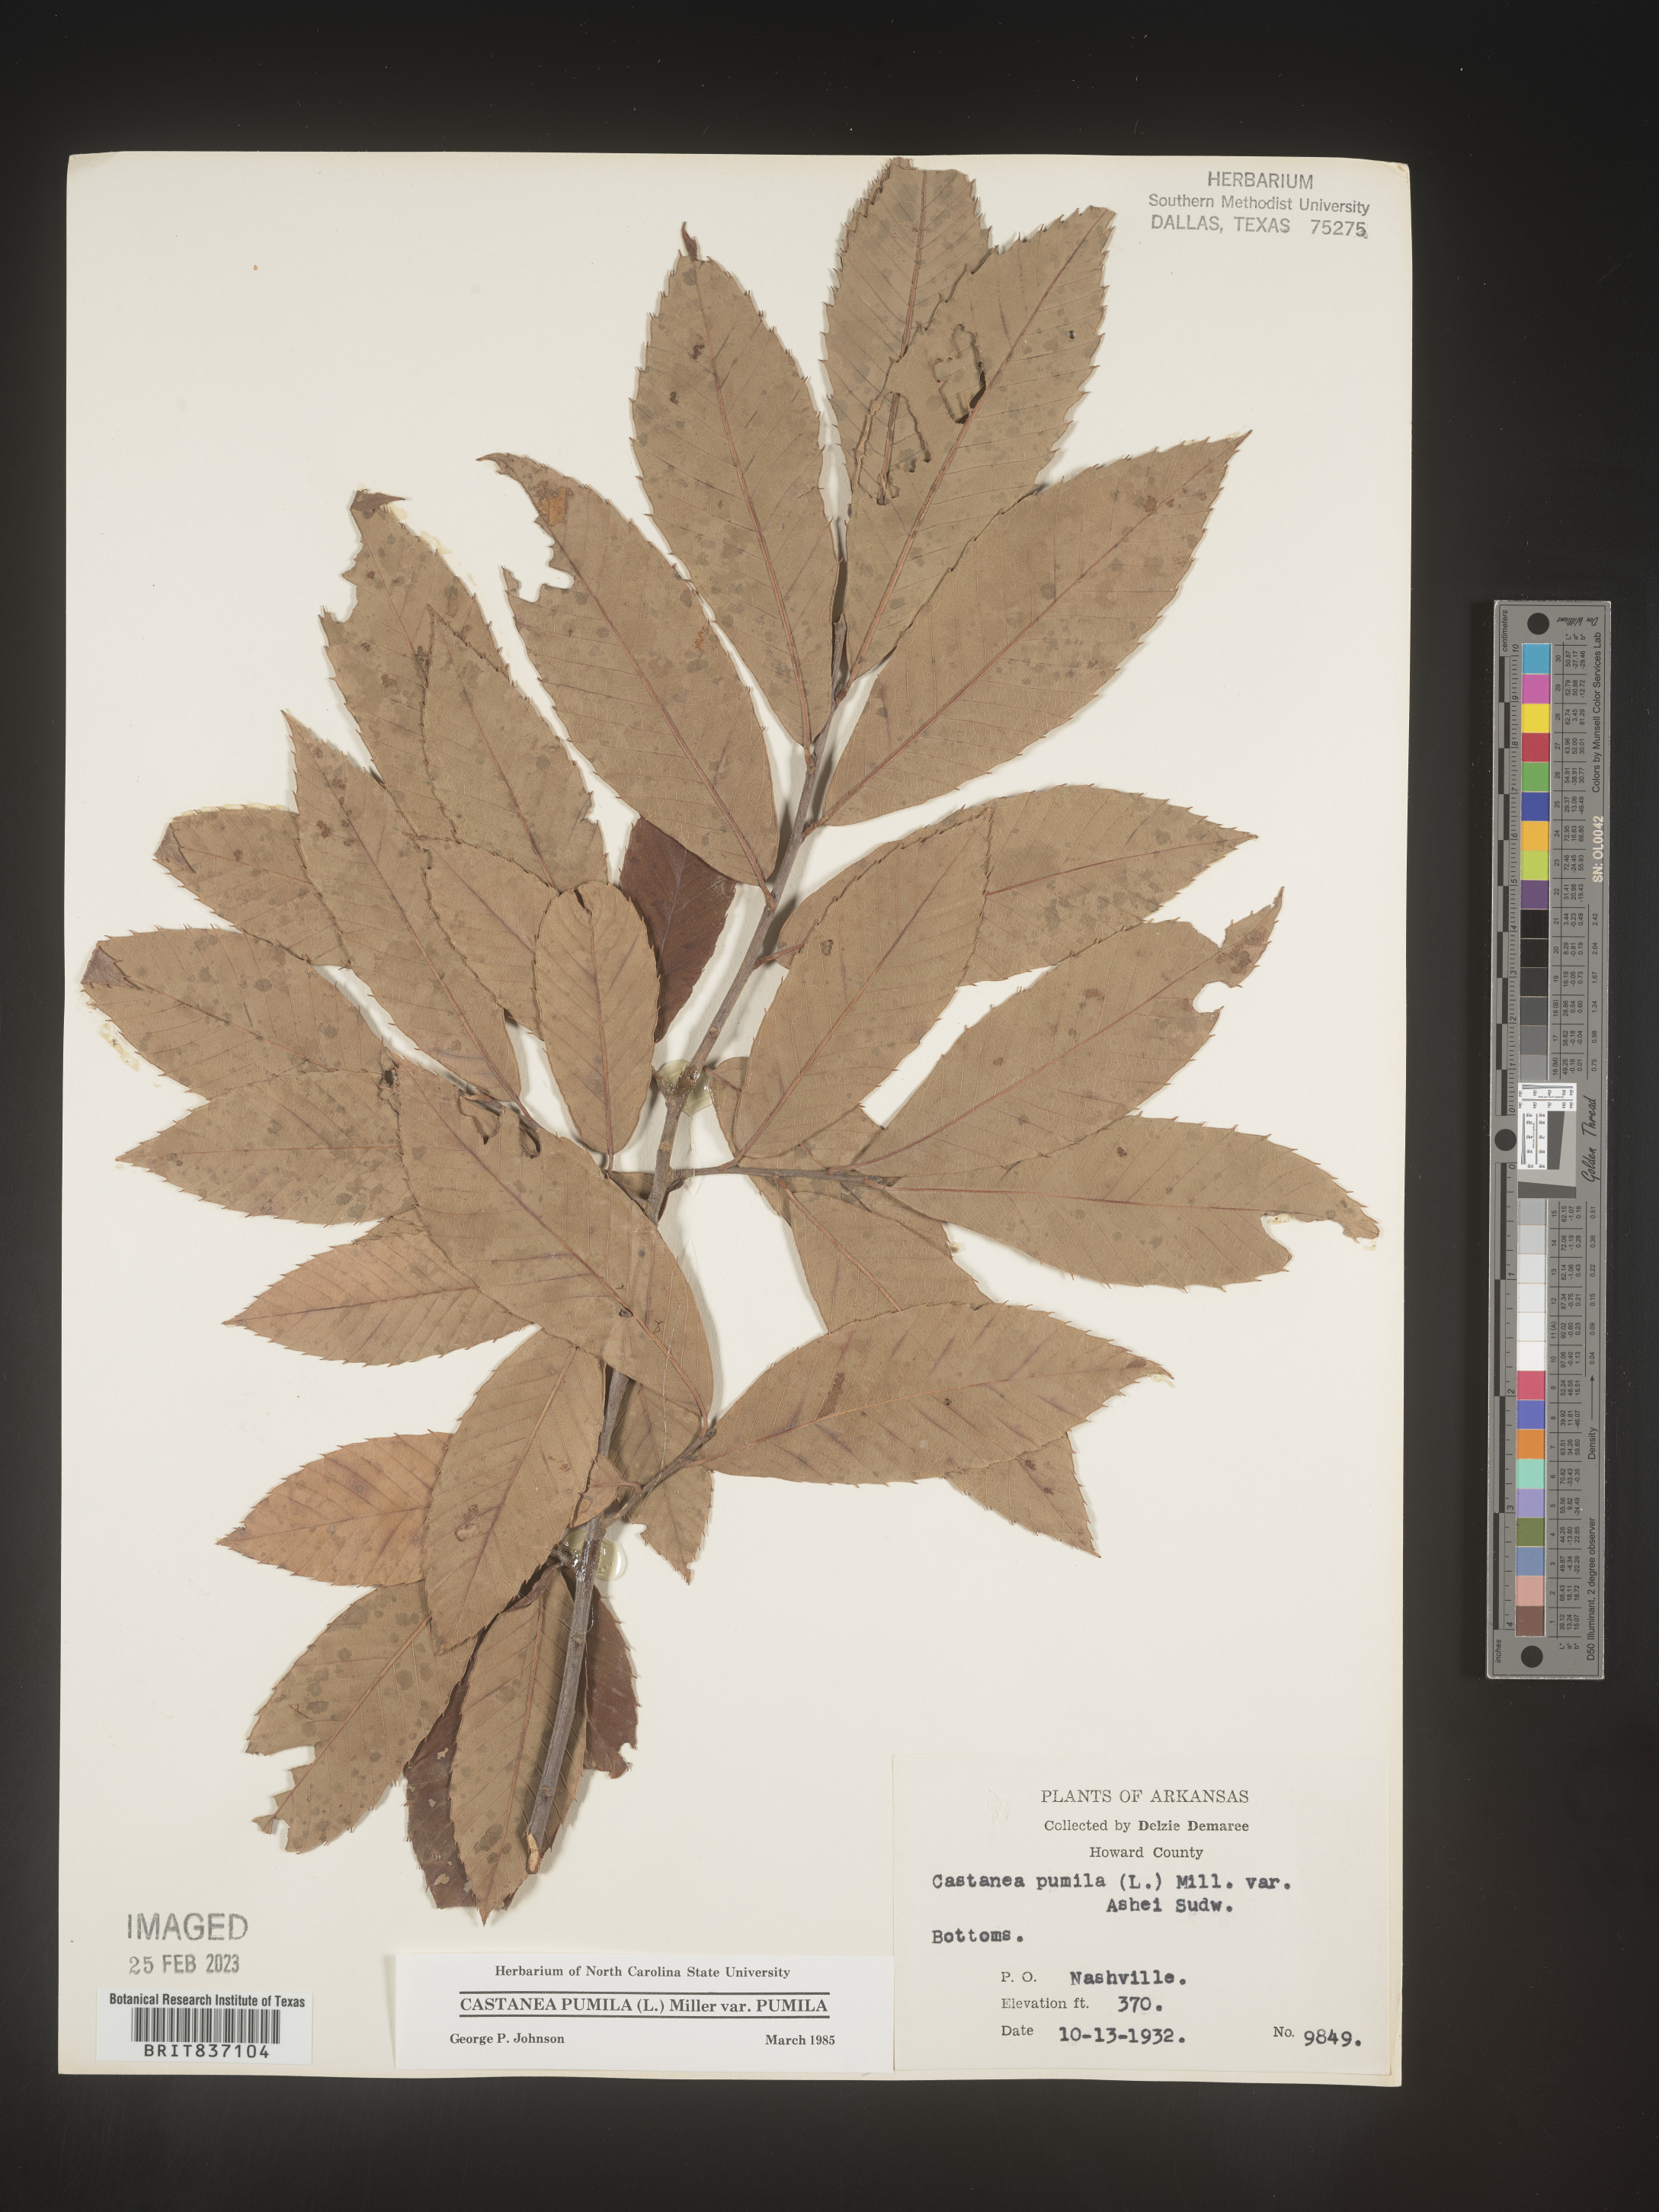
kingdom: Plantae
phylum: Tracheophyta
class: Magnoliopsida
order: Fagales
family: Fagaceae
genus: Castanea
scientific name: Castanea pumila
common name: Chinkapin
